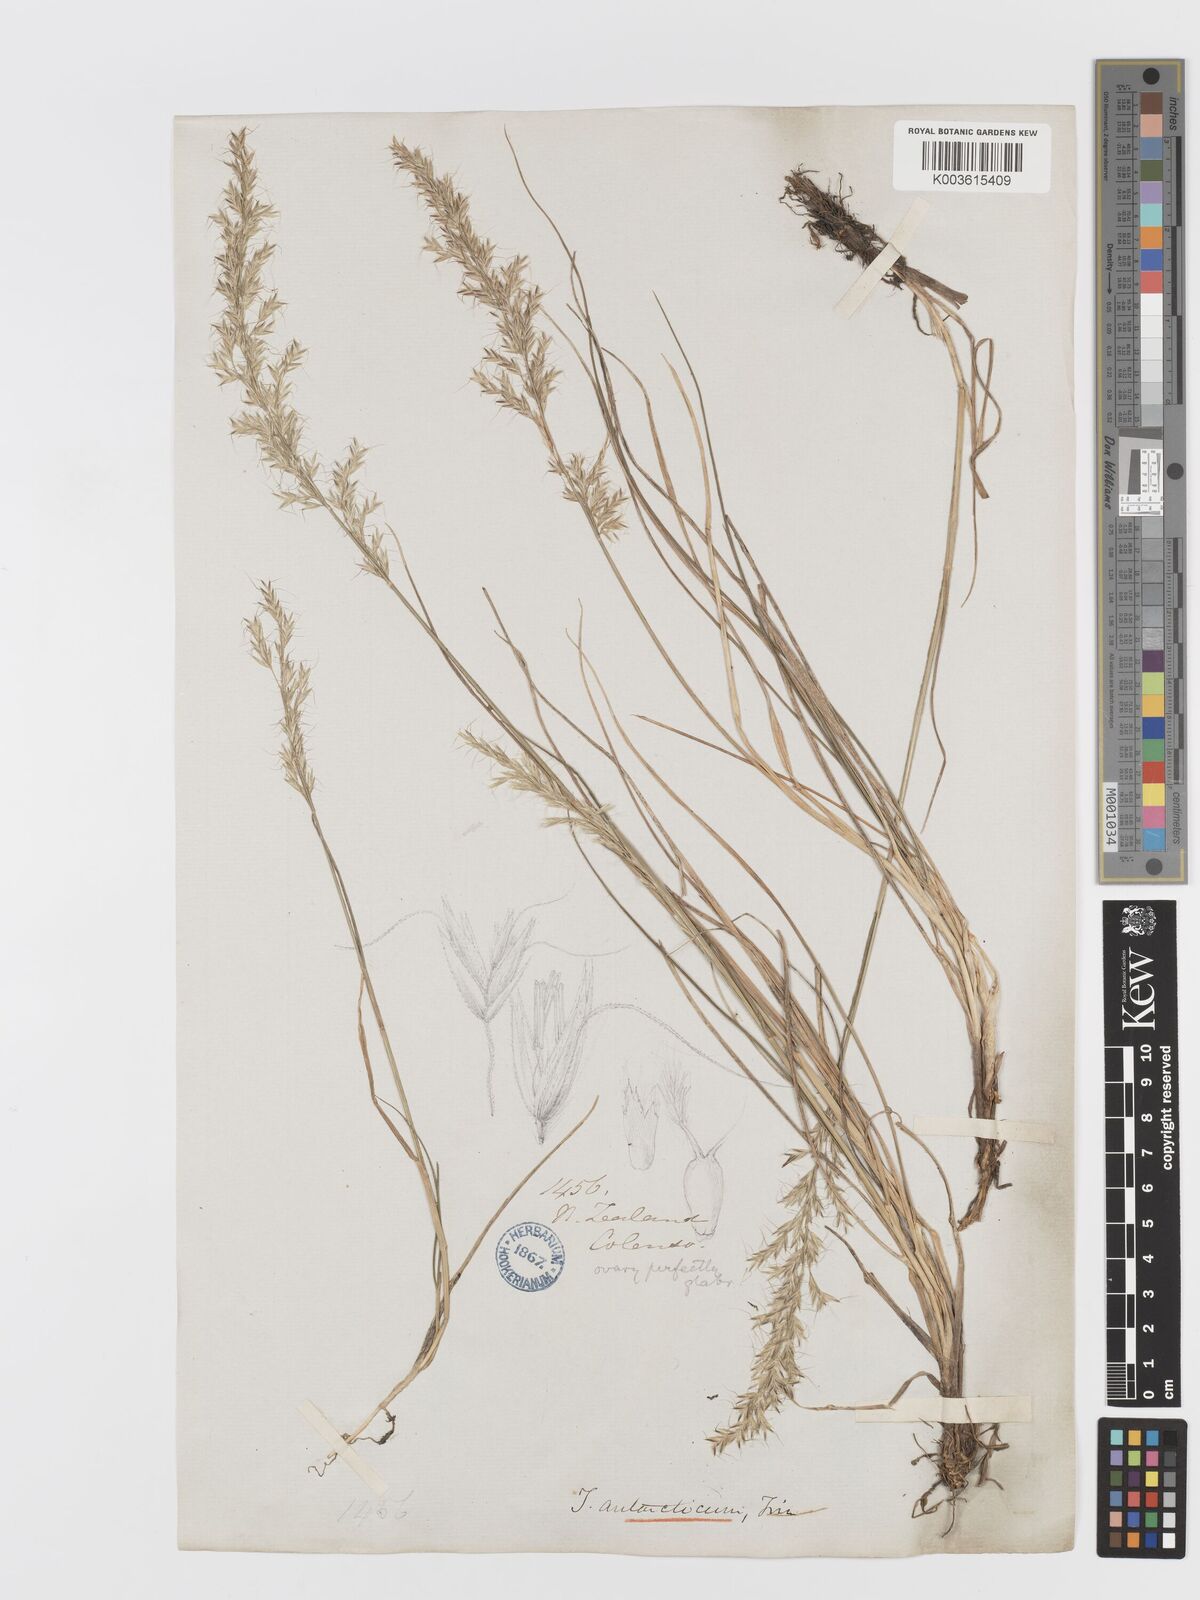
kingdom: Plantae
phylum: Tracheophyta
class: Liliopsida
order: Poales
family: Poaceae
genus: Koeleria
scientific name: Koeleria antarctica
